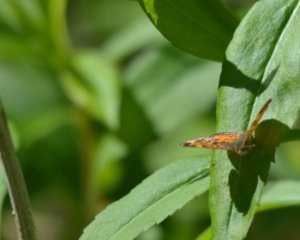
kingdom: Animalia
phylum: Arthropoda
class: Insecta
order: Lepidoptera
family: Nymphalidae
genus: Phyciodes
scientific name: Phyciodes tharos
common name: Northern Crescent
